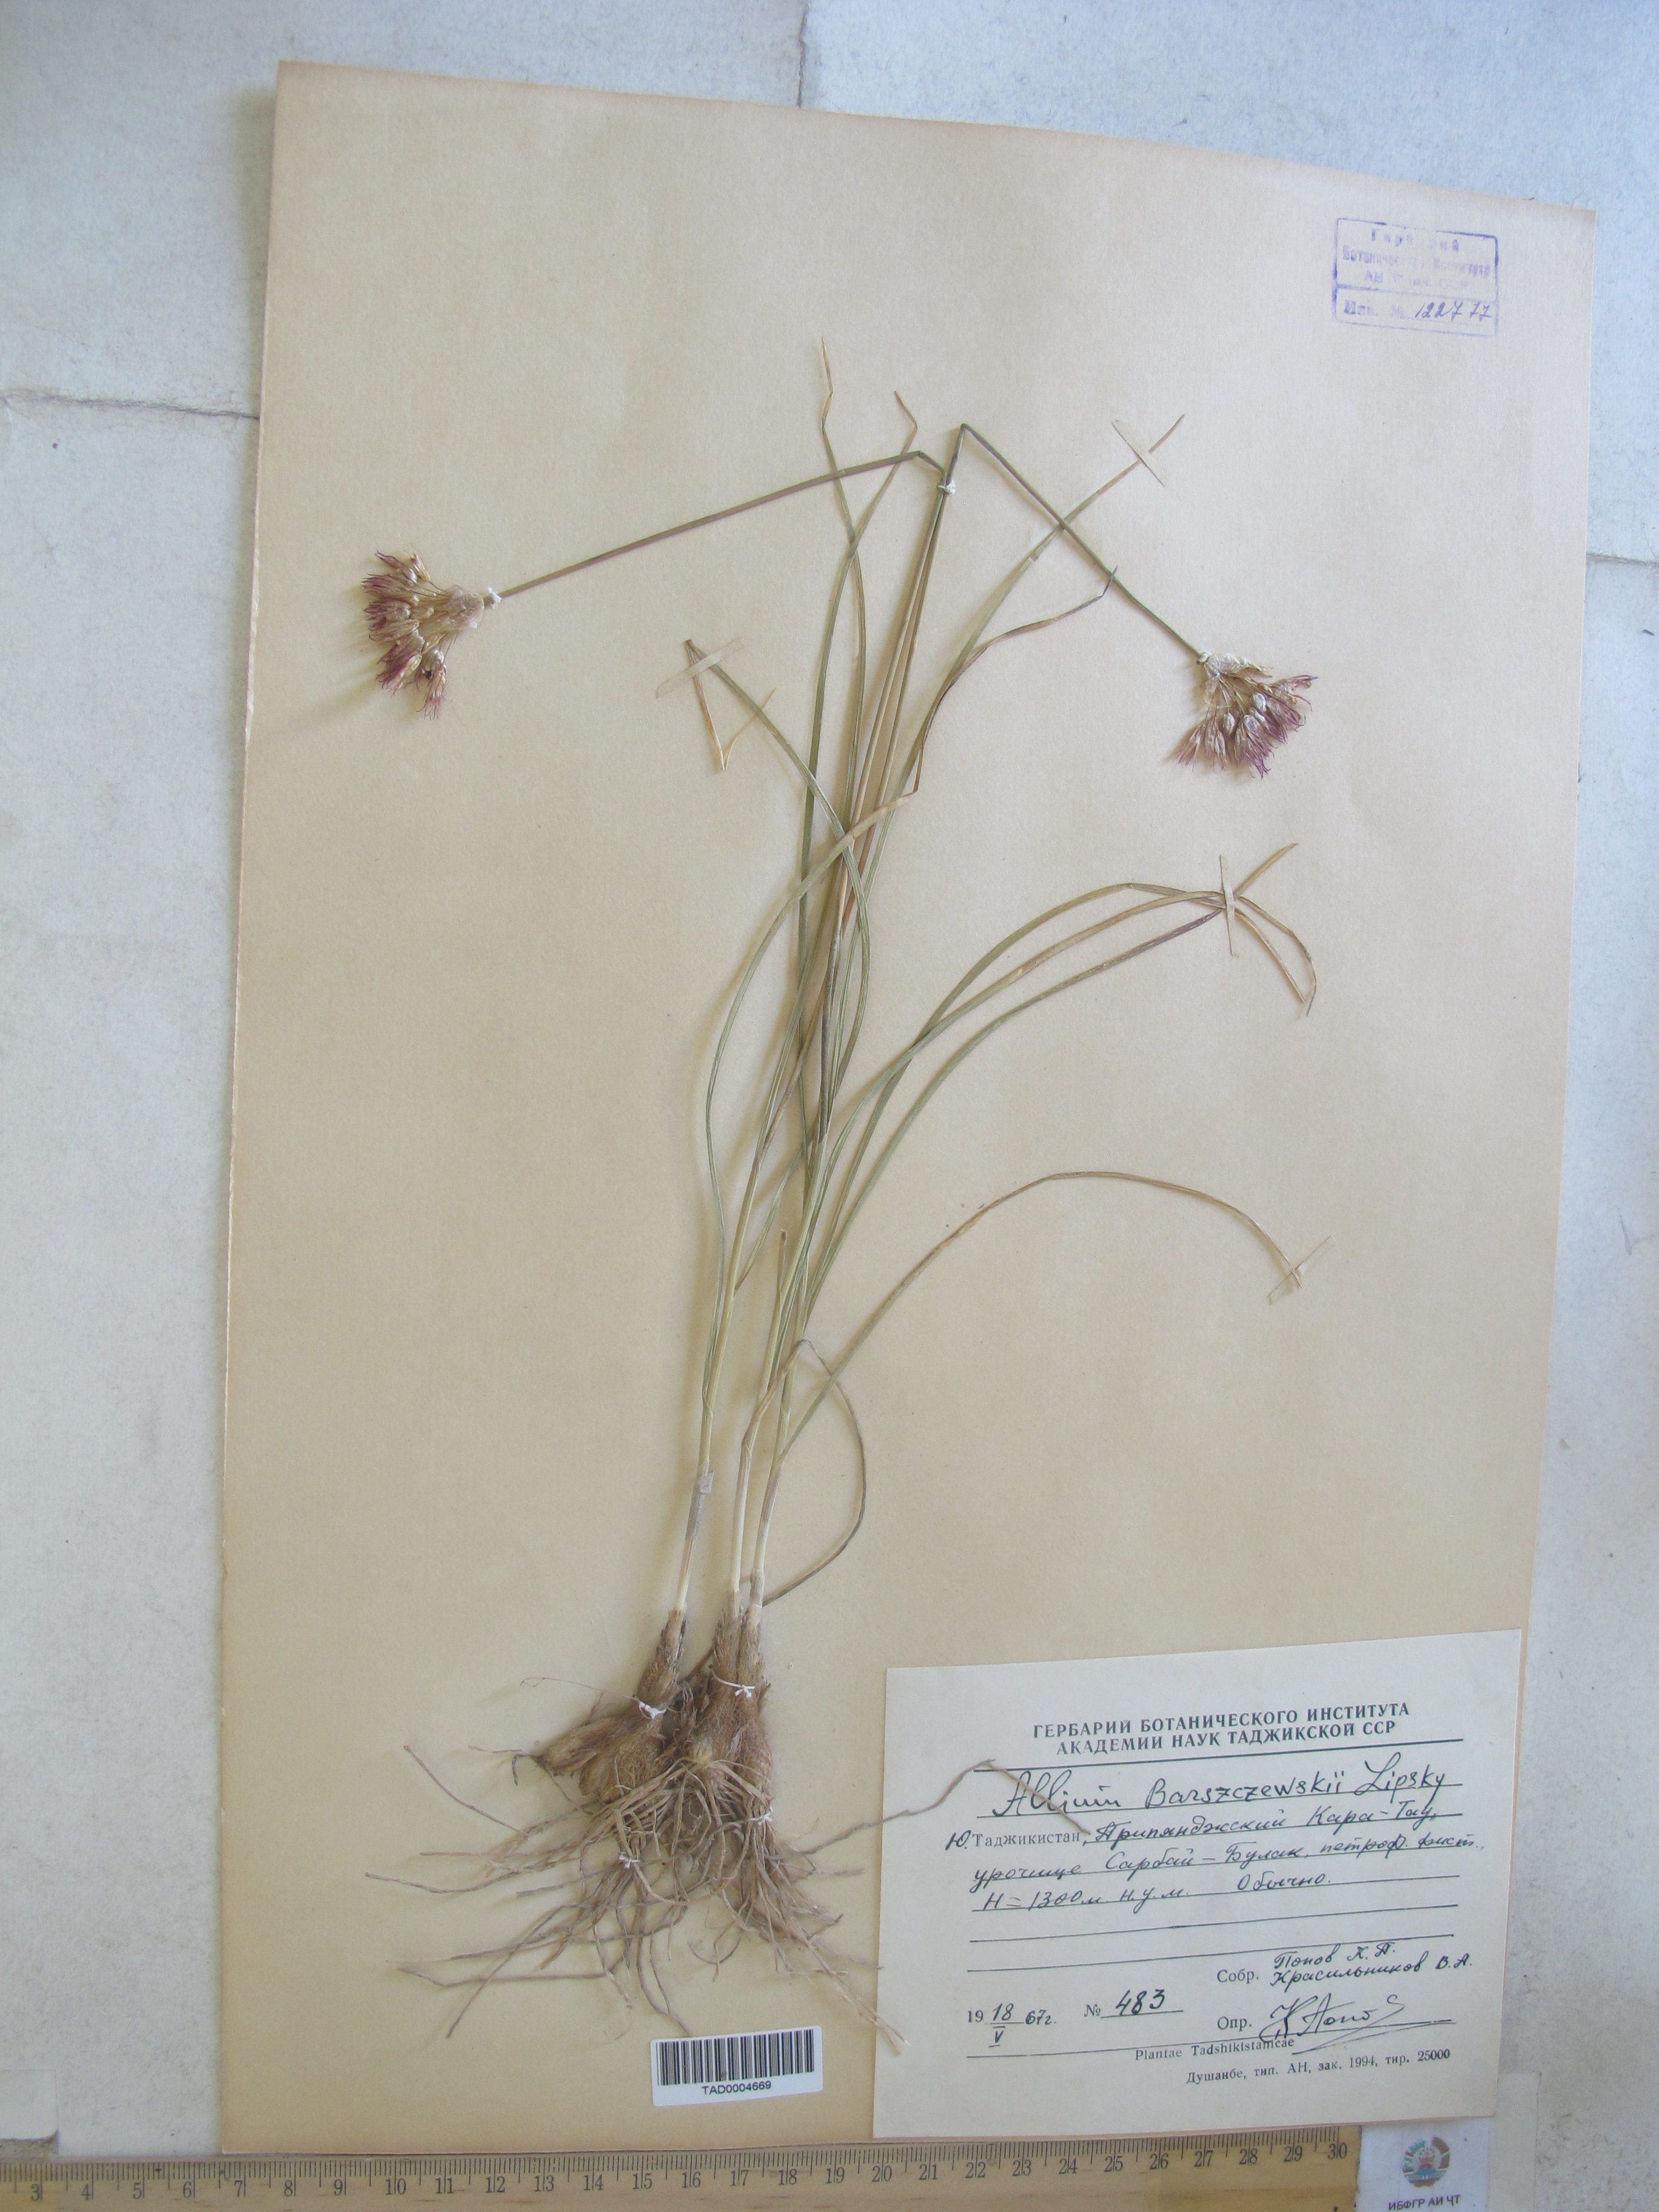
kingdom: Plantae
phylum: Tracheophyta
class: Liliopsida
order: Asparagales
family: Amaryllidaceae
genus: Allium
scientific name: Allium barsczewskii
